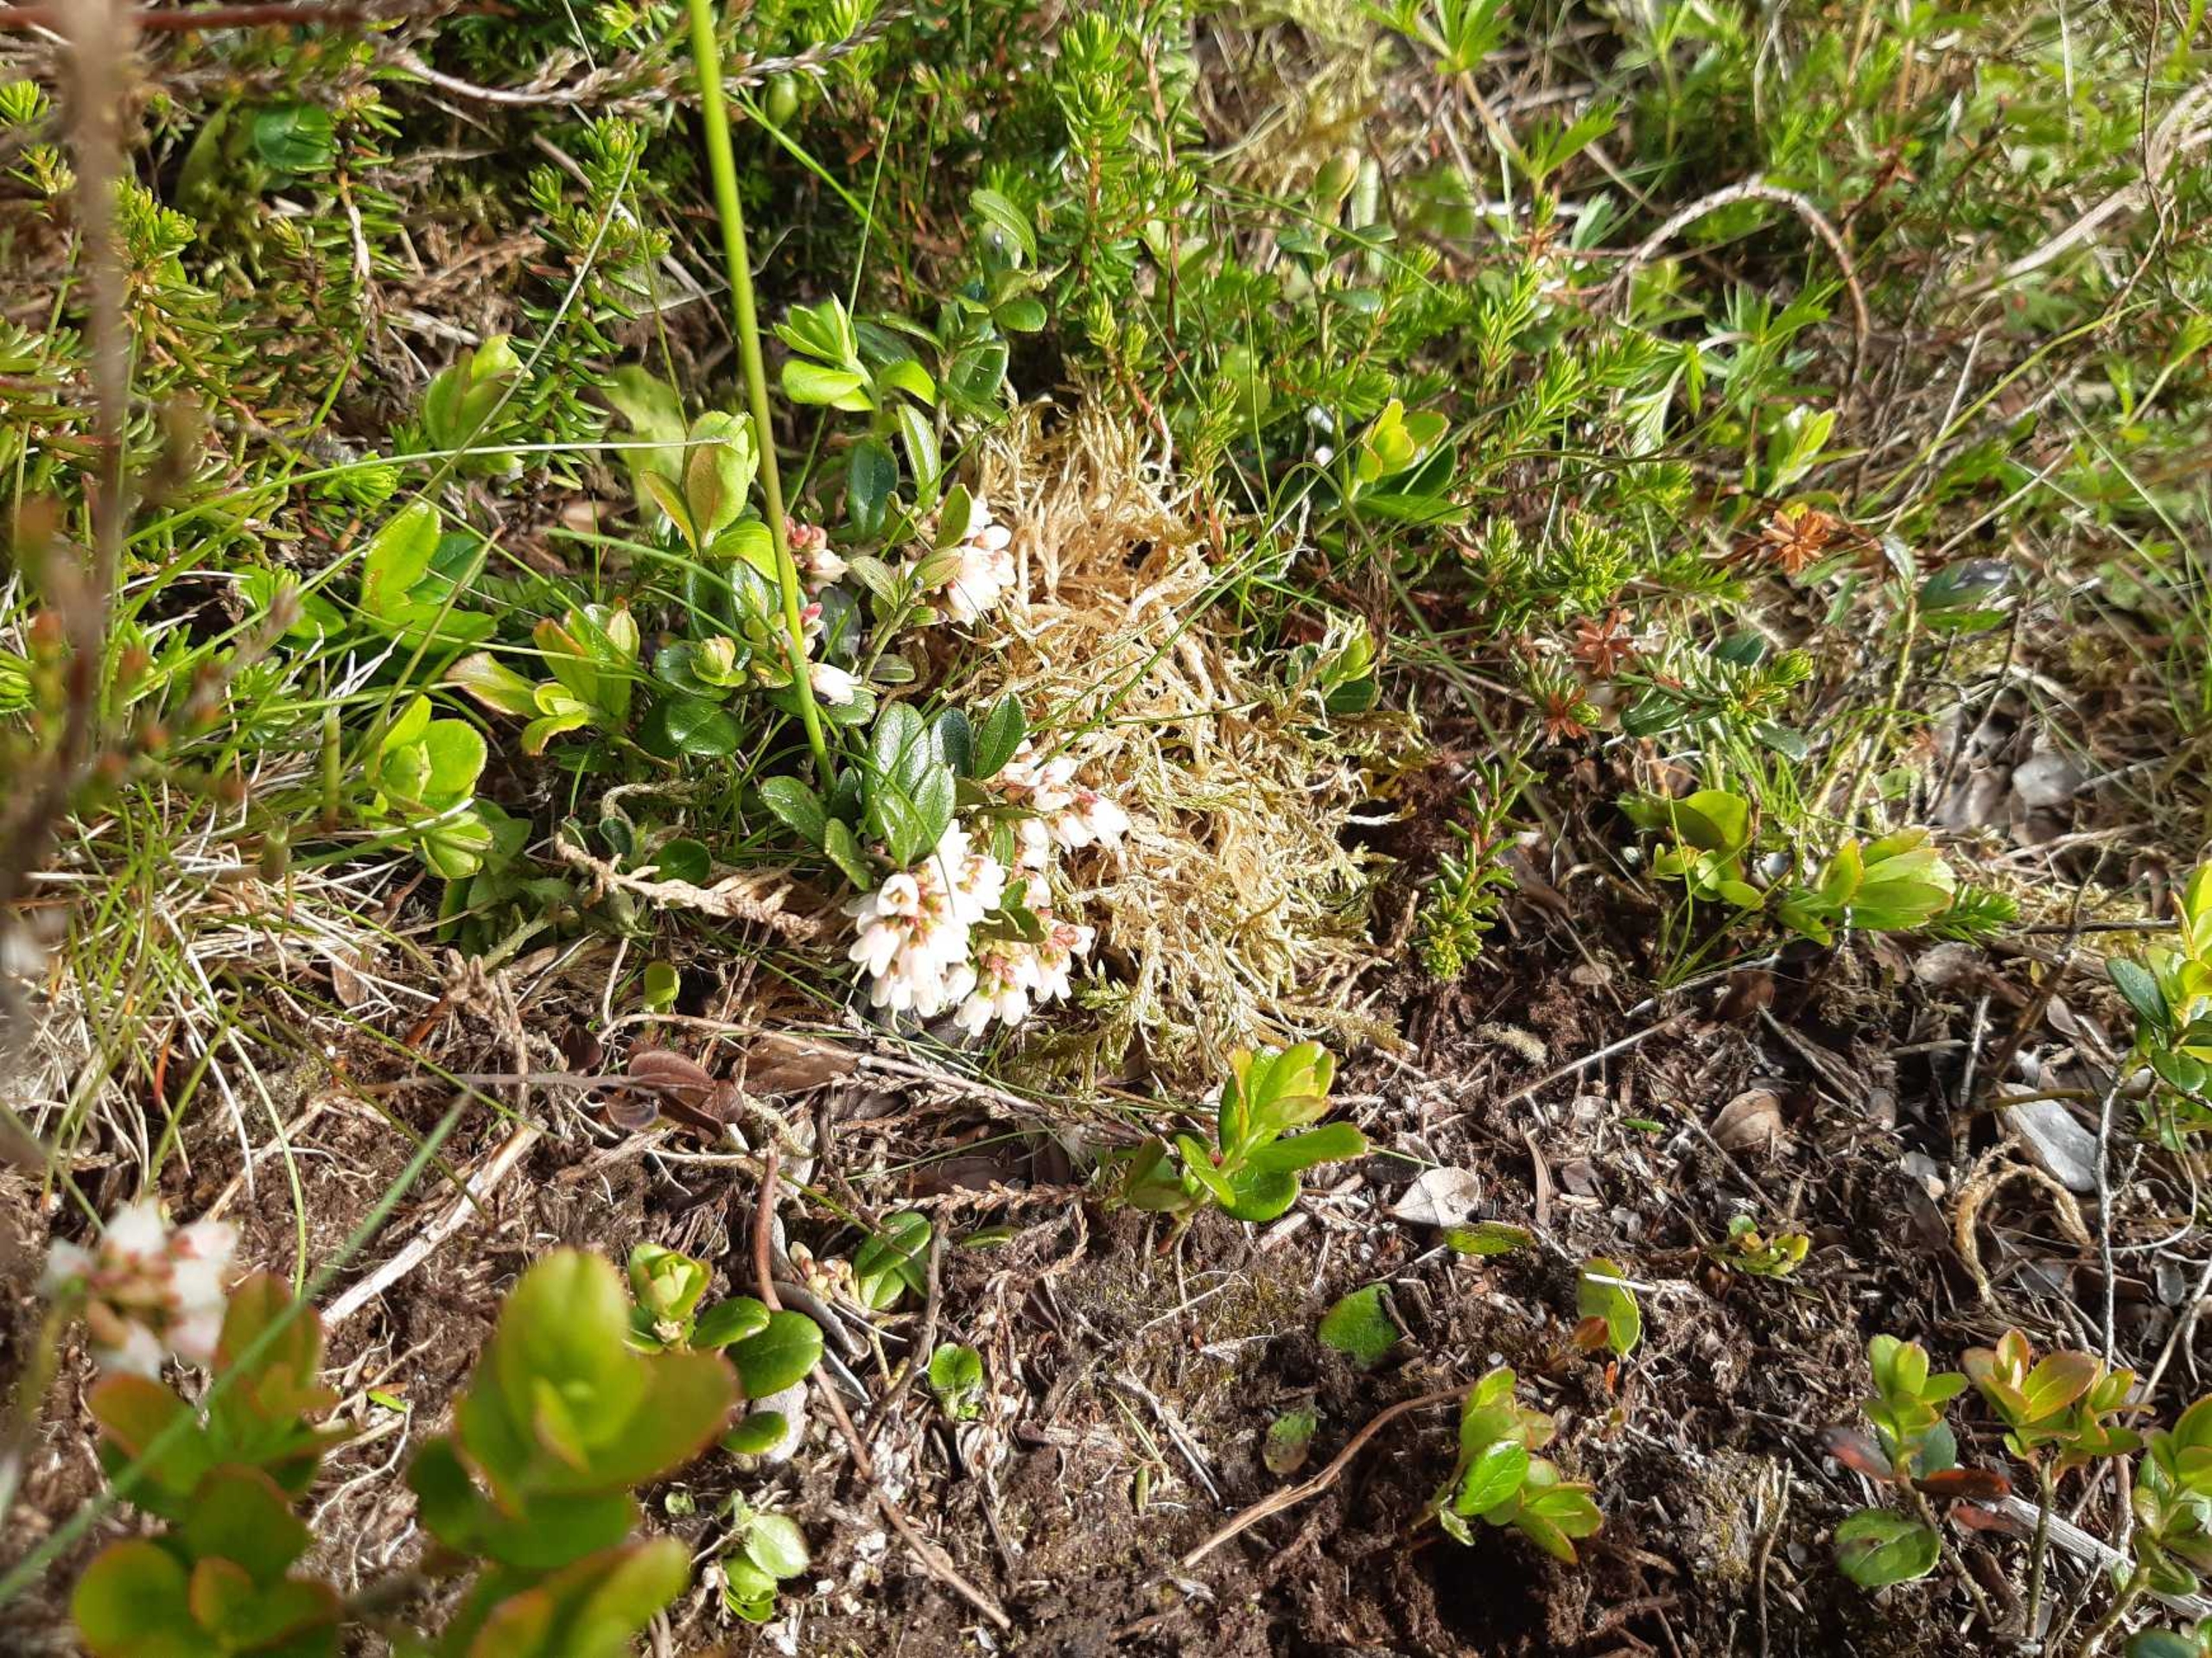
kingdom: Plantae
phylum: Tracheophyta
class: Magnoliopsida
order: Ericales
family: Ericaceae
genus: Vaccinium
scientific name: Vaccinium vitis-idaea
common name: Tyttebær
